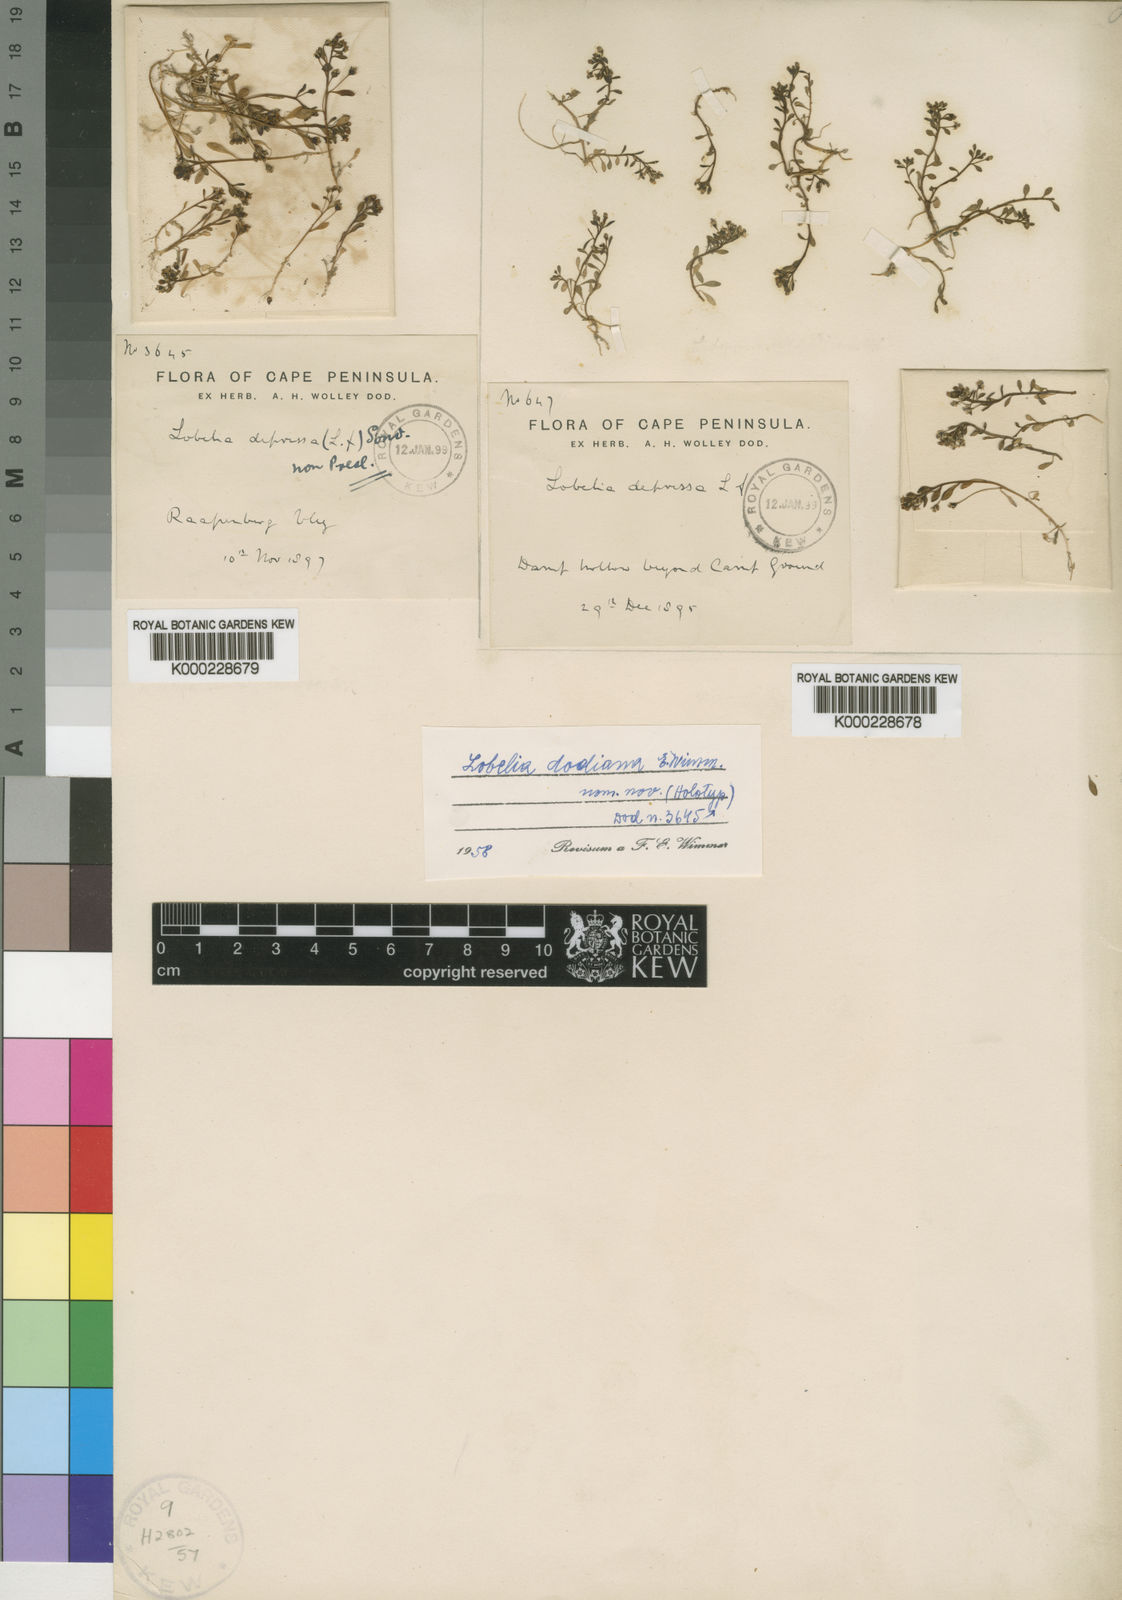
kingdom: Plantae
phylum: Tracheophyta
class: Magnoliopsida
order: Asterales
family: Campanulaceae
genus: Lobelia
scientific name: Lobelia dodiana
